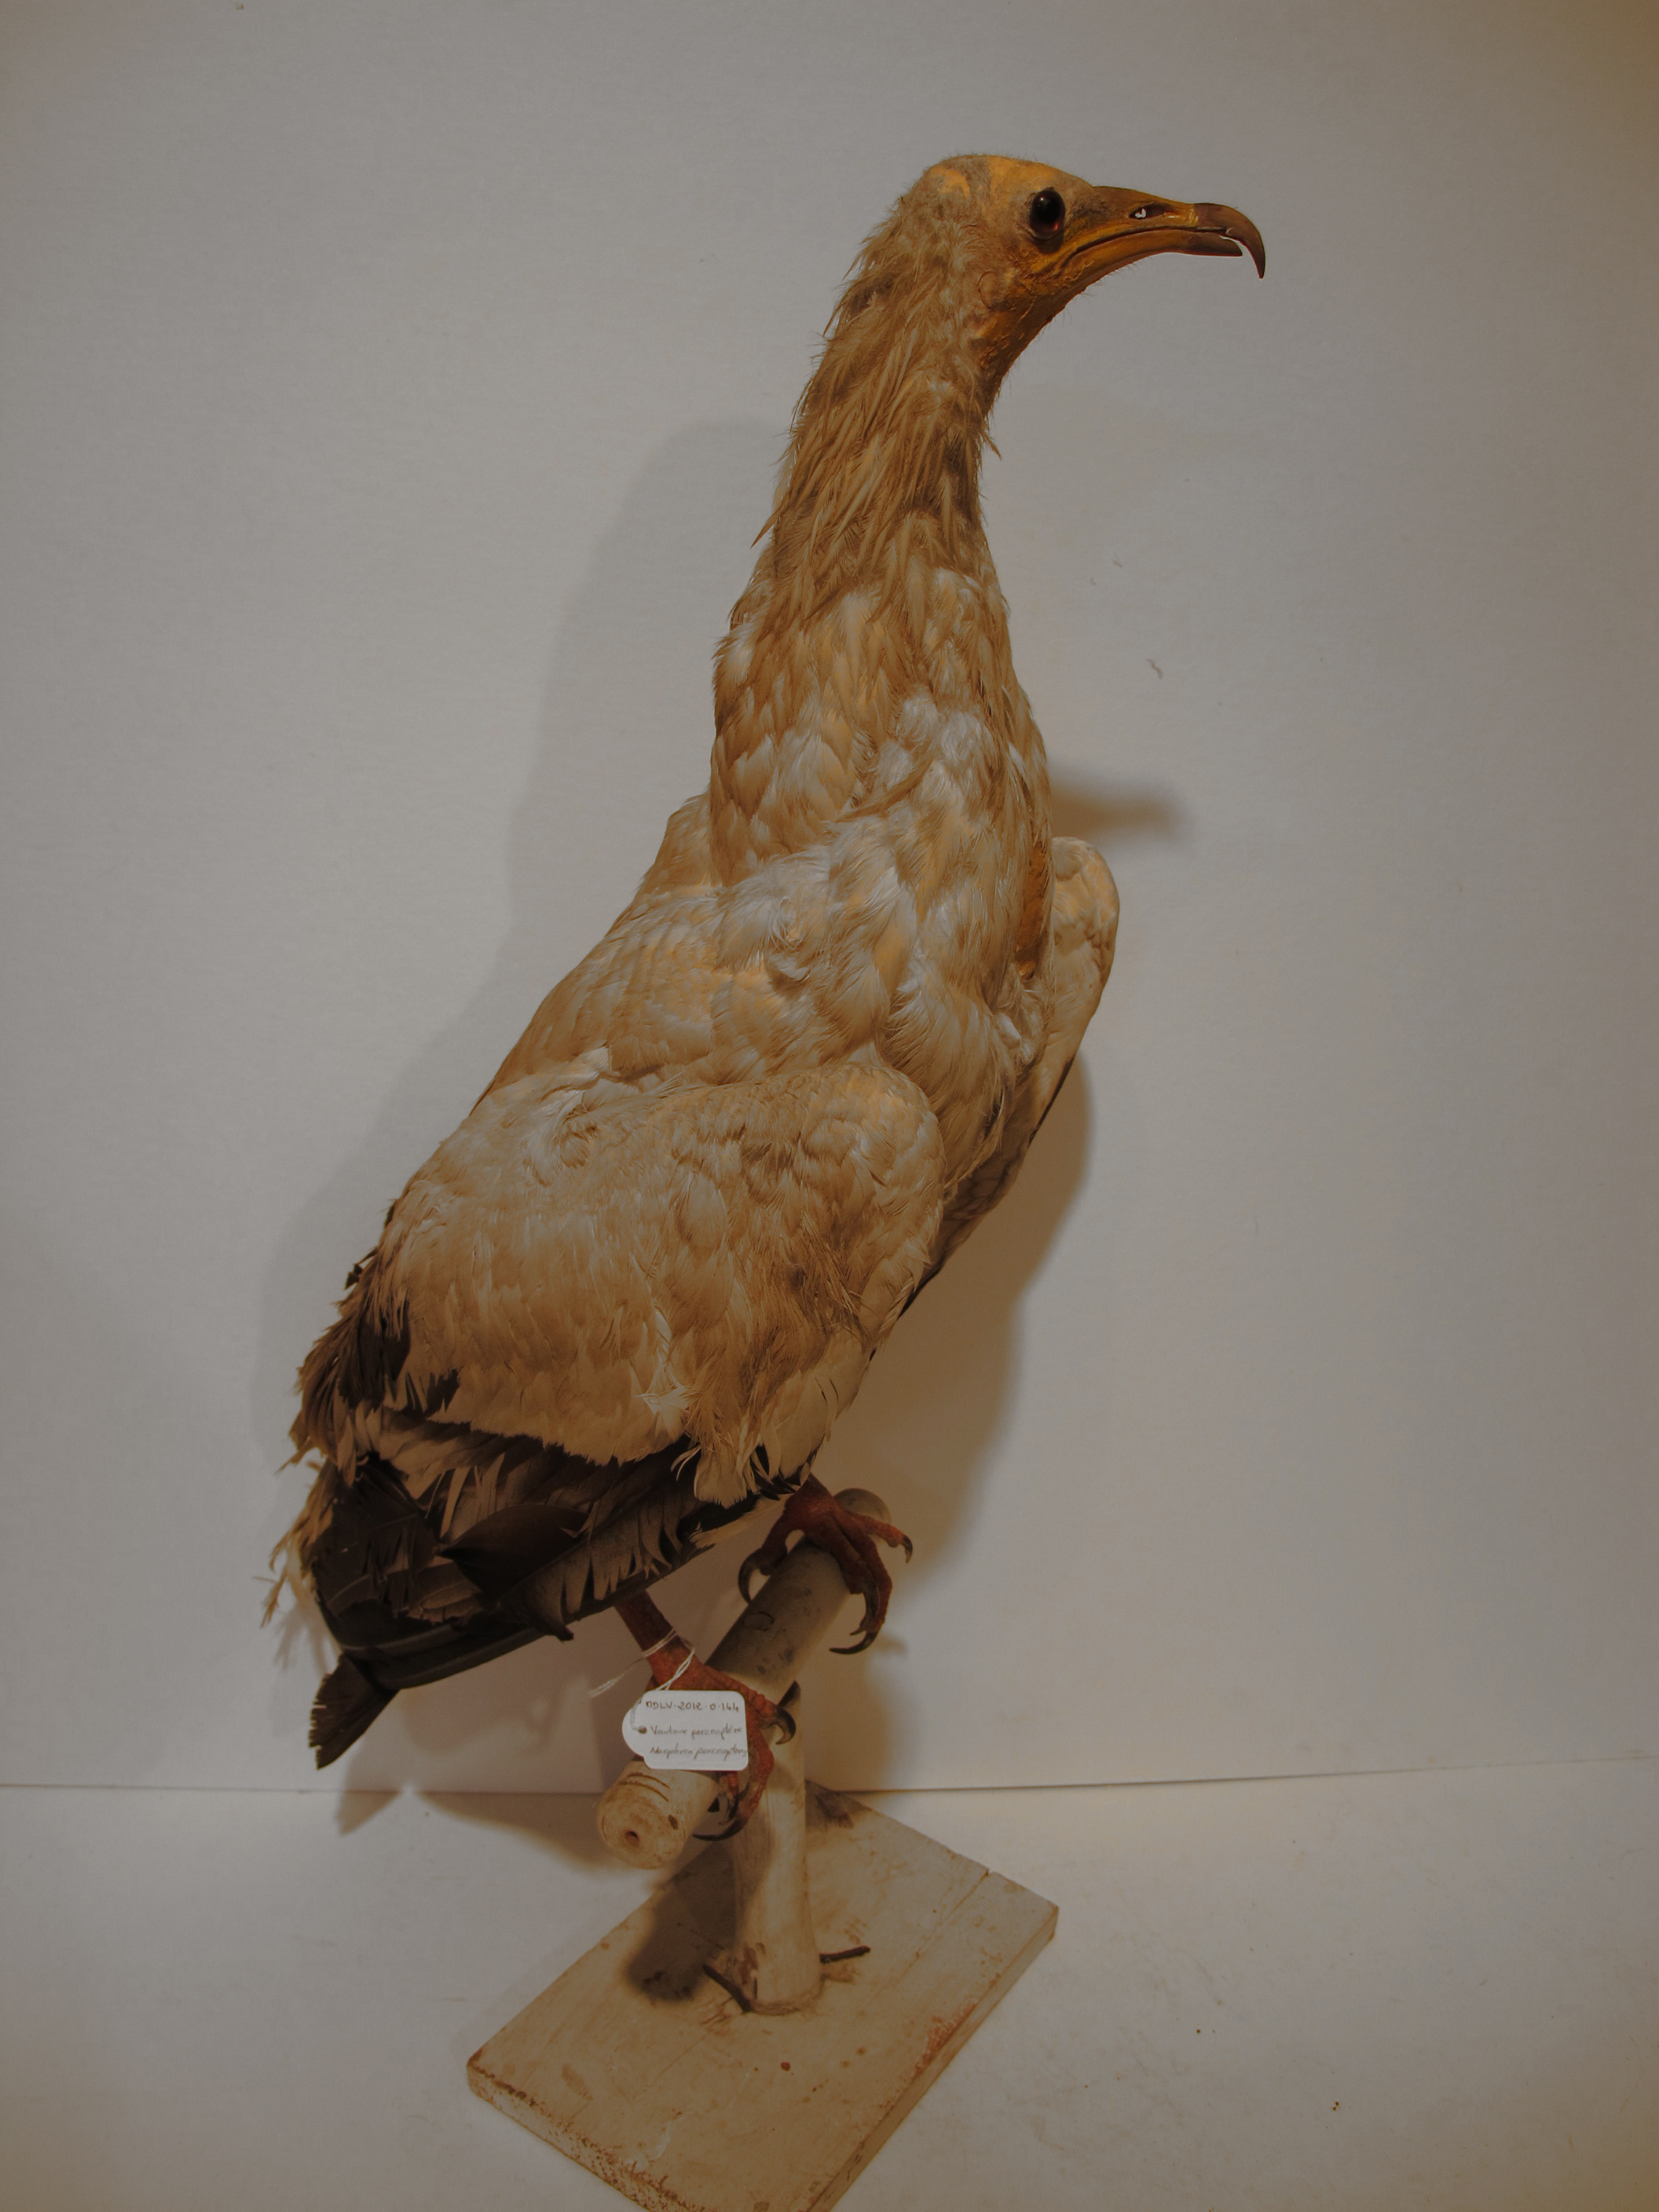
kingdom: Animalia
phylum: Chordata
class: Aves
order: Accipitriformes
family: Accipitridae
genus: Neophron
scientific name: Neophron percnopterus
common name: Egyptian Vulture
